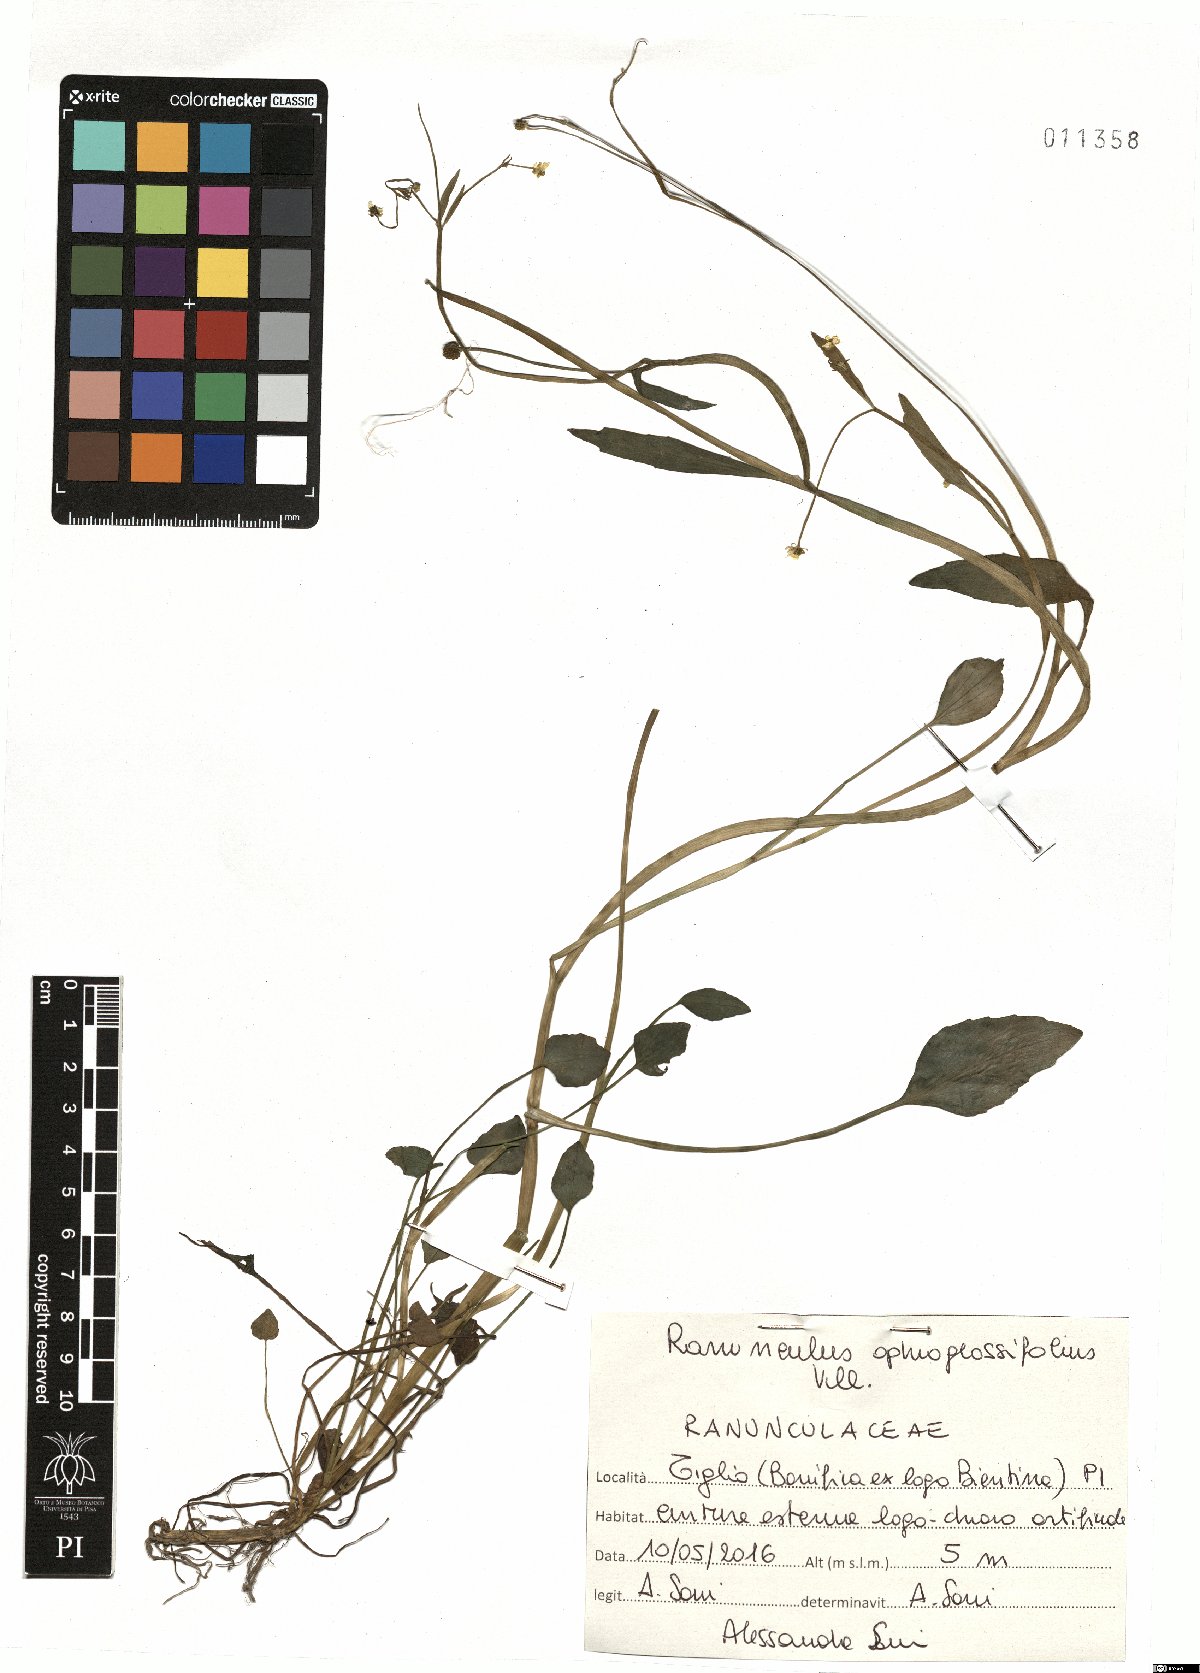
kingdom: Plantae
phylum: Tracheophyta
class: Magnoliopsida
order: Ranunculales
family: Ranunculaceae
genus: Ranunculus
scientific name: Ranunculus ophioglossifolius
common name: Adder's-tongue spearwort
